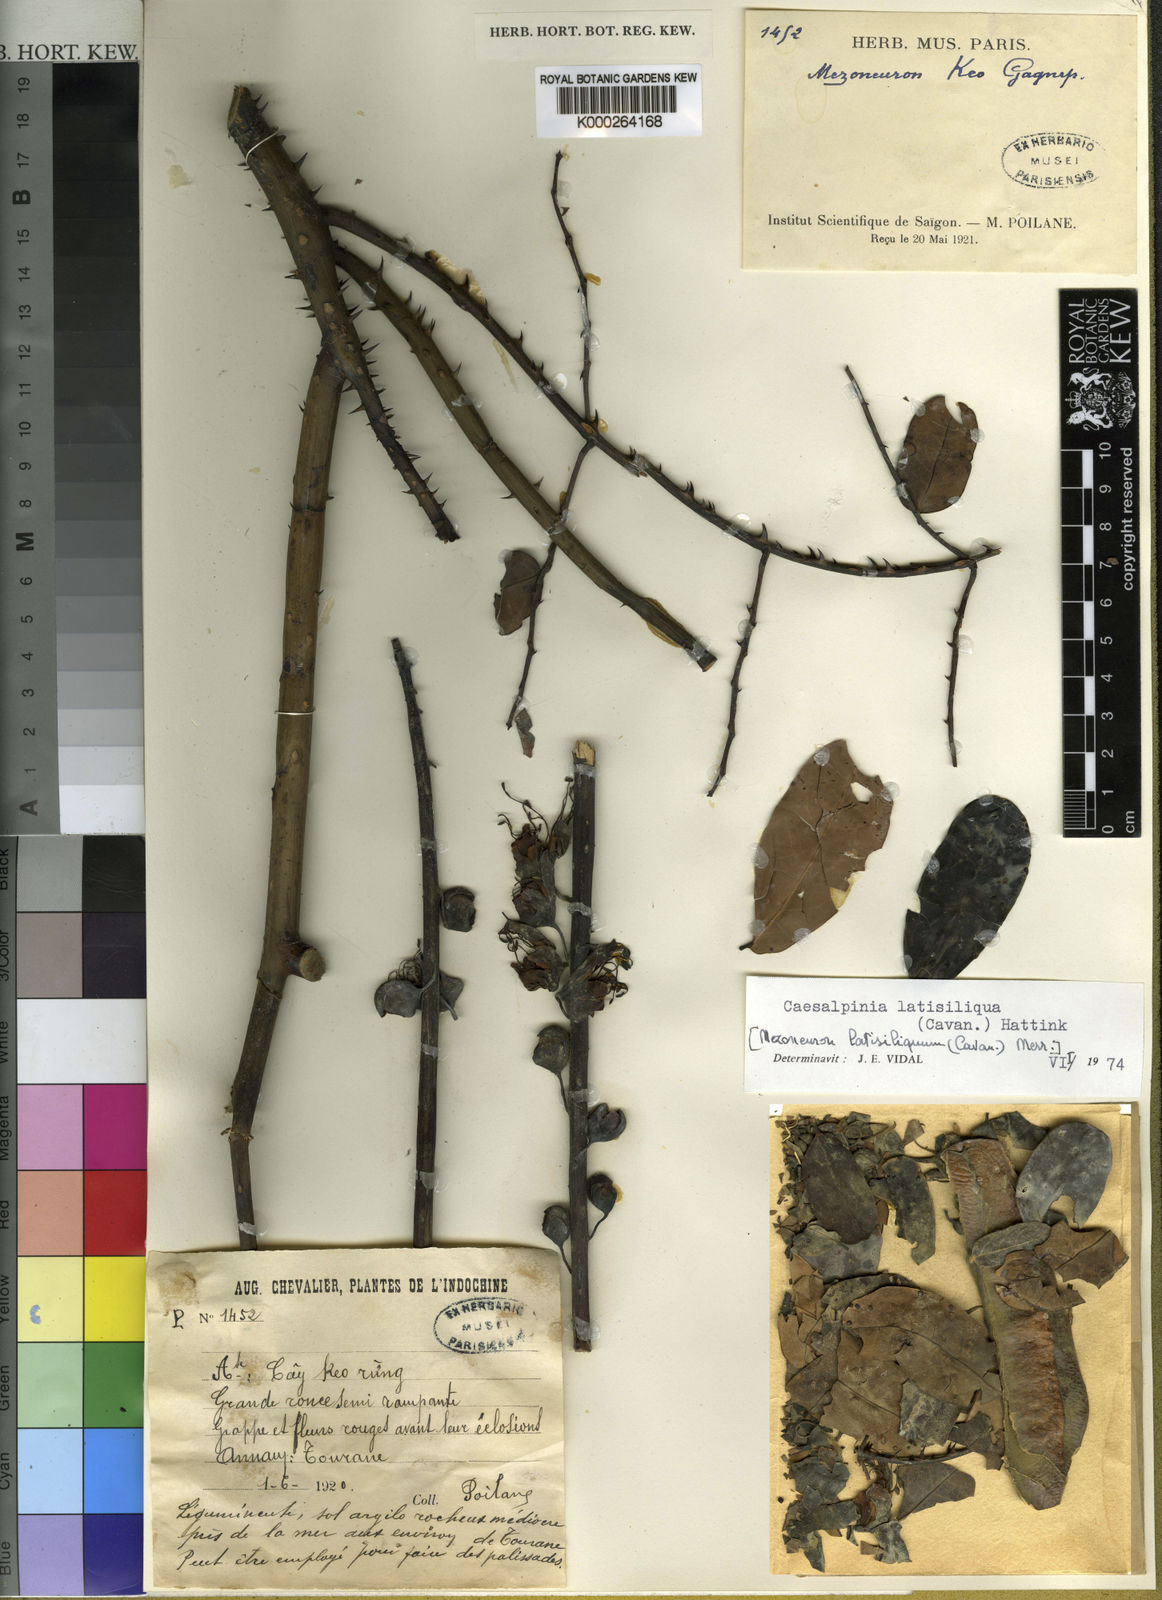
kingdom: Plantae
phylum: Tracheophyta
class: Magnoliopsida
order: Fabales
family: Fabaceae
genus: Mezoneuron
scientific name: Mezoneuron latisiliquum
